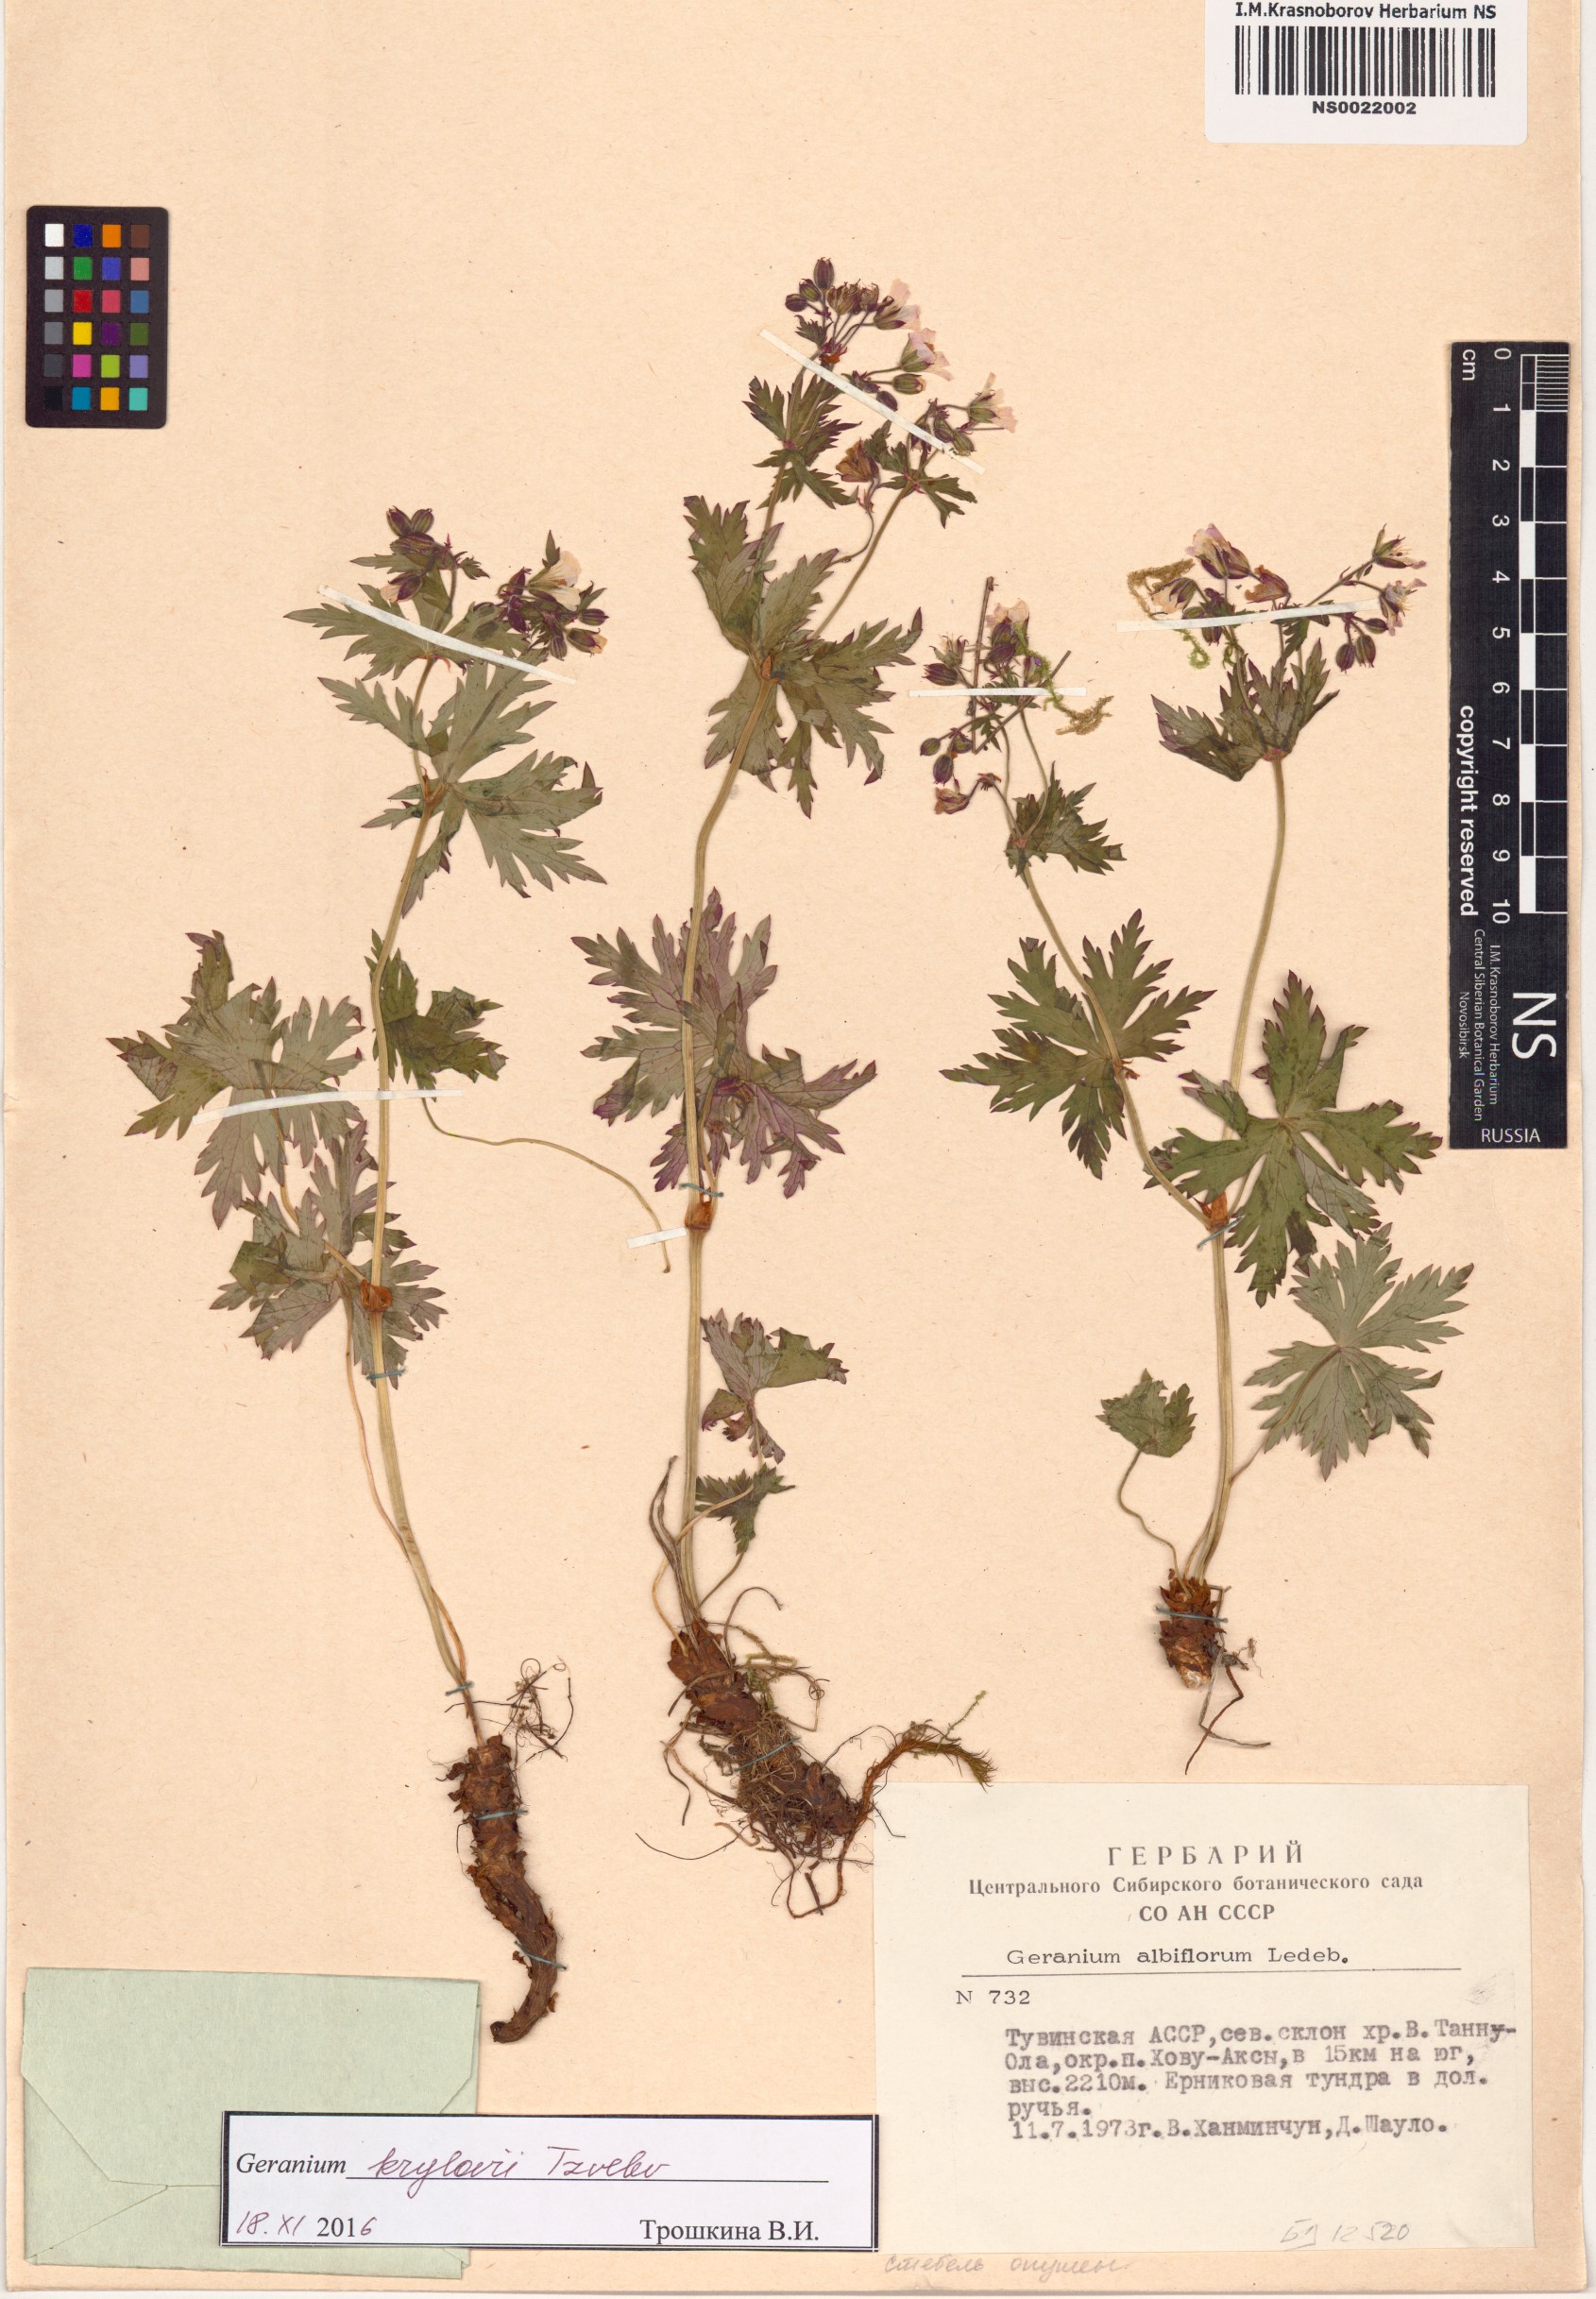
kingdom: Plantae
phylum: Tracheophyta
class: Magnoliopsida
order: Geraniales
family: Geraniaceae
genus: Geranium
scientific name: Geranium sylvaticum
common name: Wood crane's-bill
